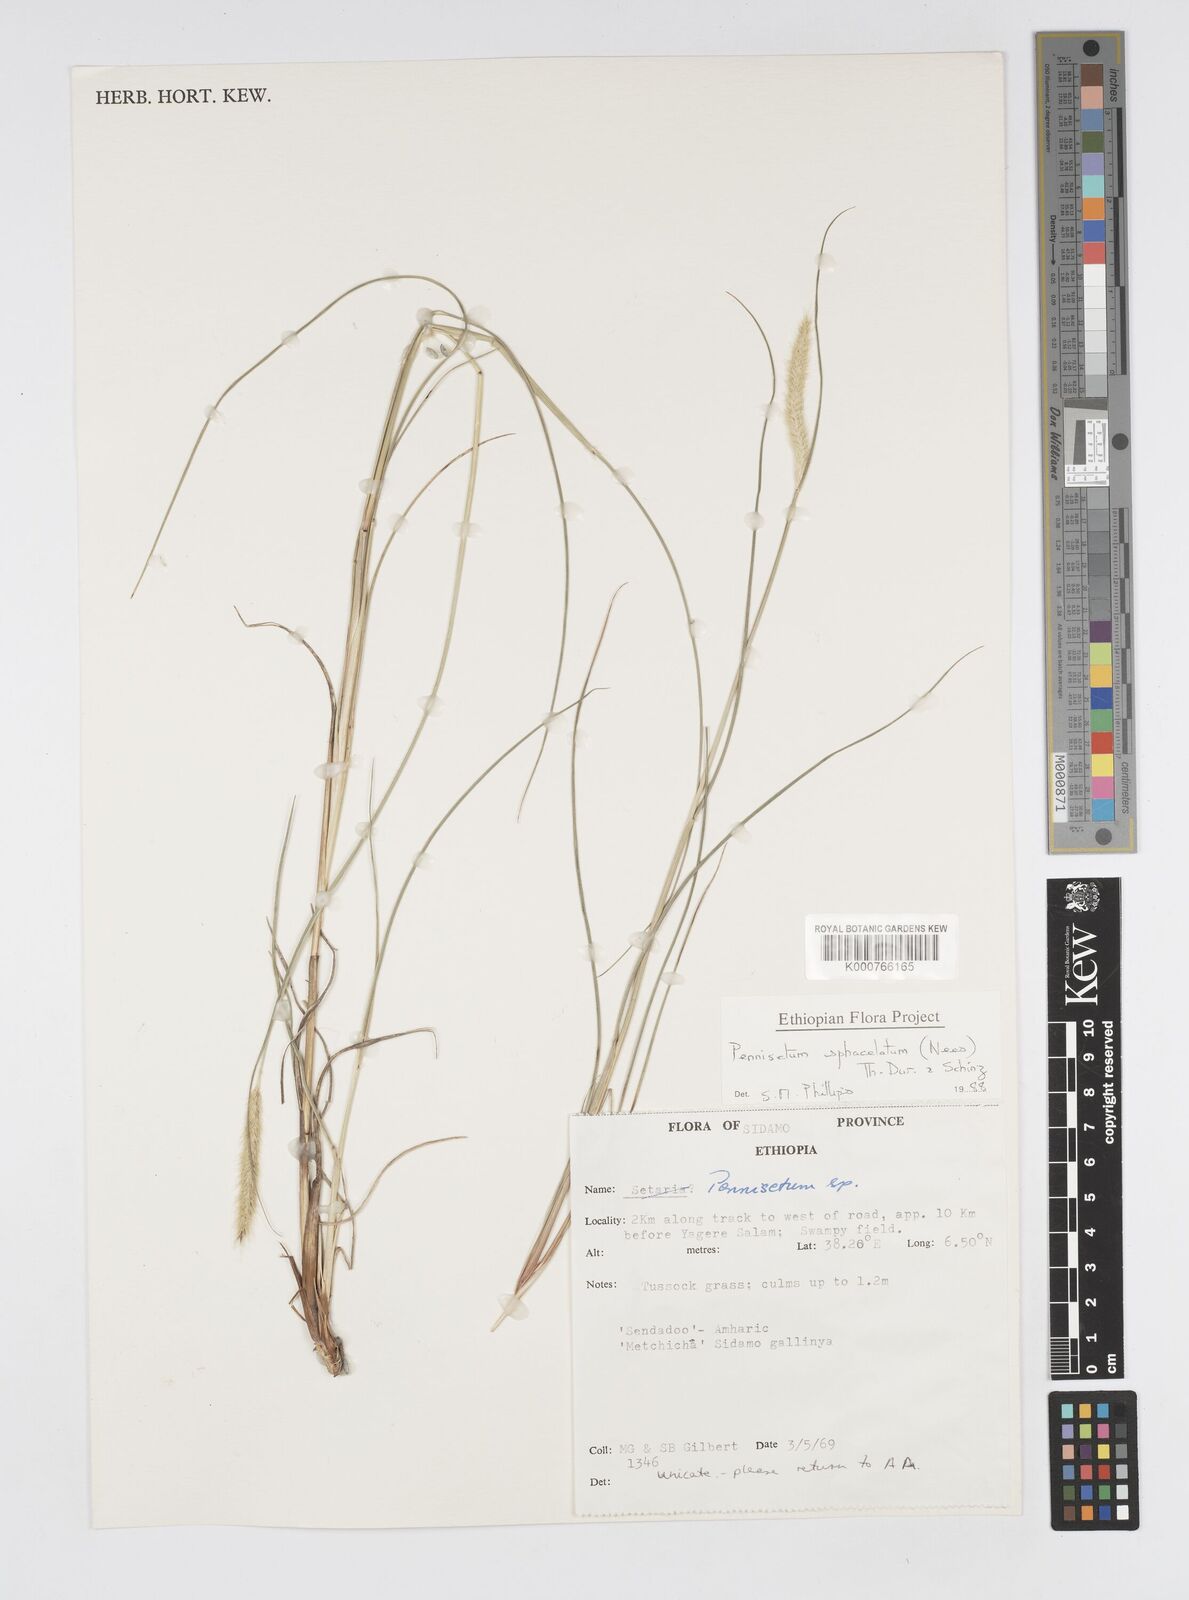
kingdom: Plantae
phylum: Tracheophyta
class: Liliopsida
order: Poales
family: Poaceae
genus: Cenchrus
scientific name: Cenchrus sphacelatus
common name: Bulgras
